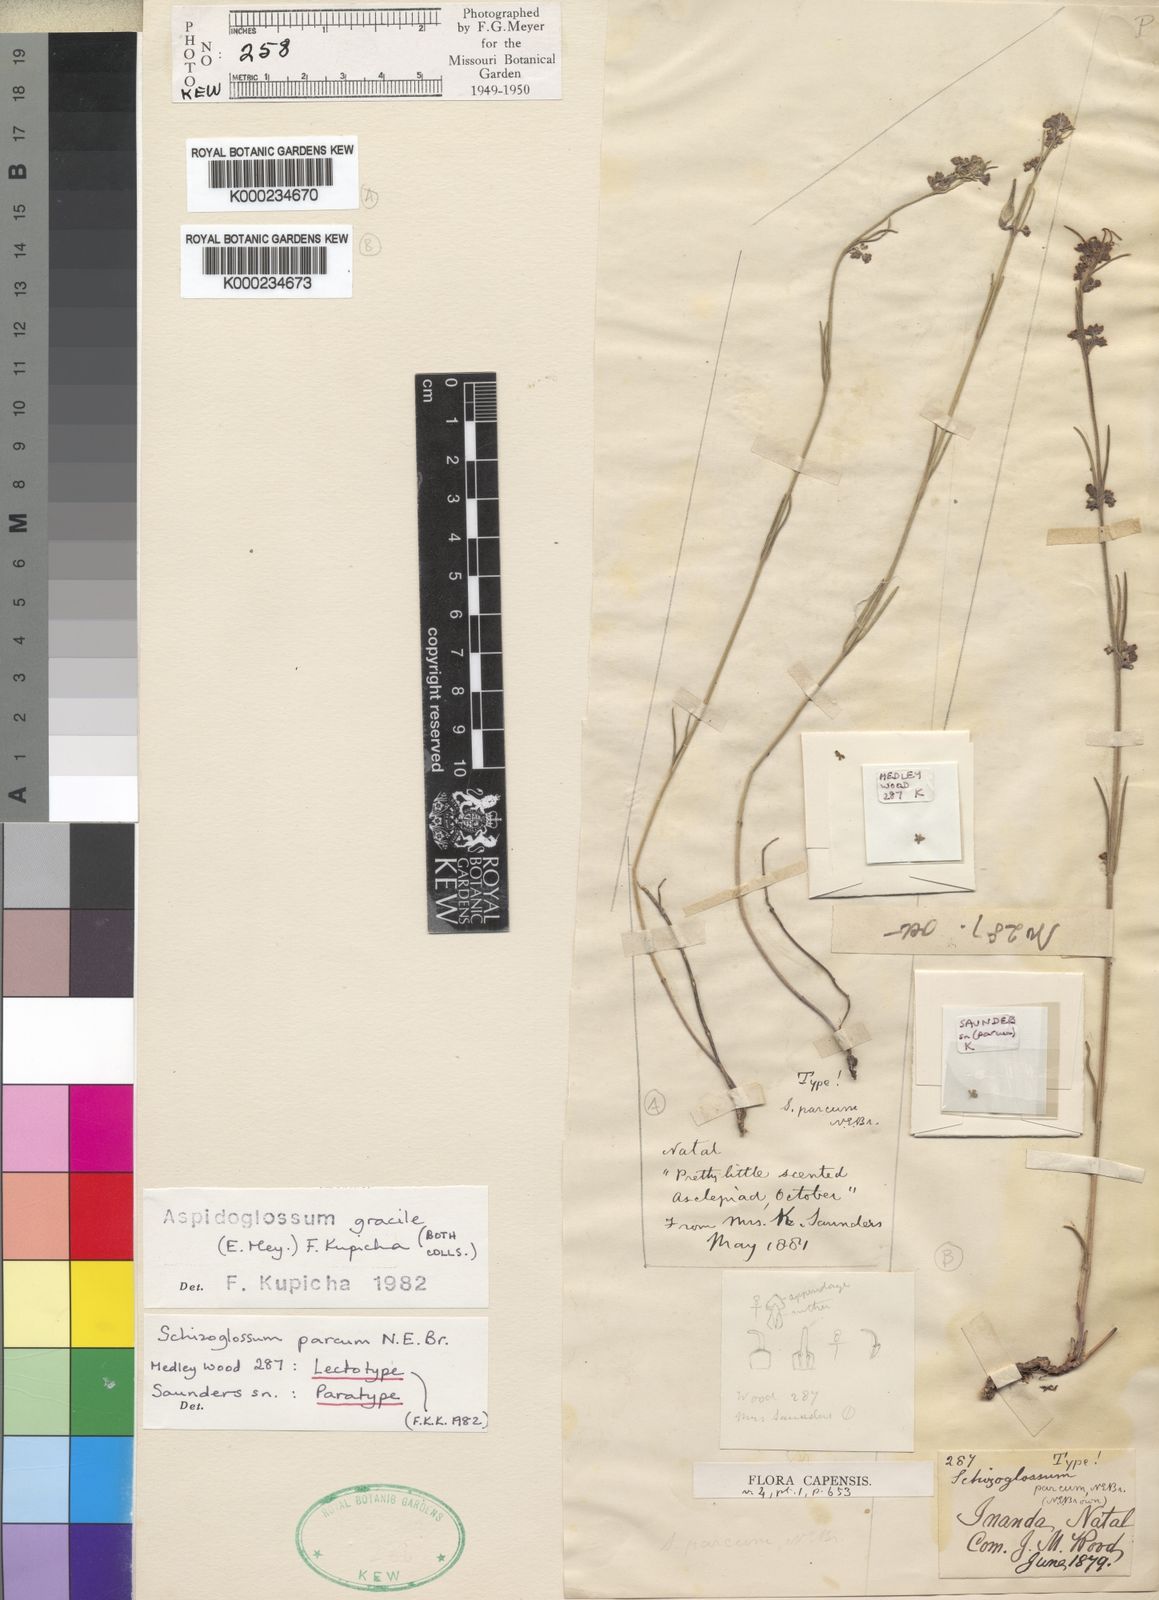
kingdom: Plantae
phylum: Tracheophyta
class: Magnoliopsida
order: Gentianales
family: Apocynaceae
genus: Aspidoglossum
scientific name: Aspidoglossum gracile
